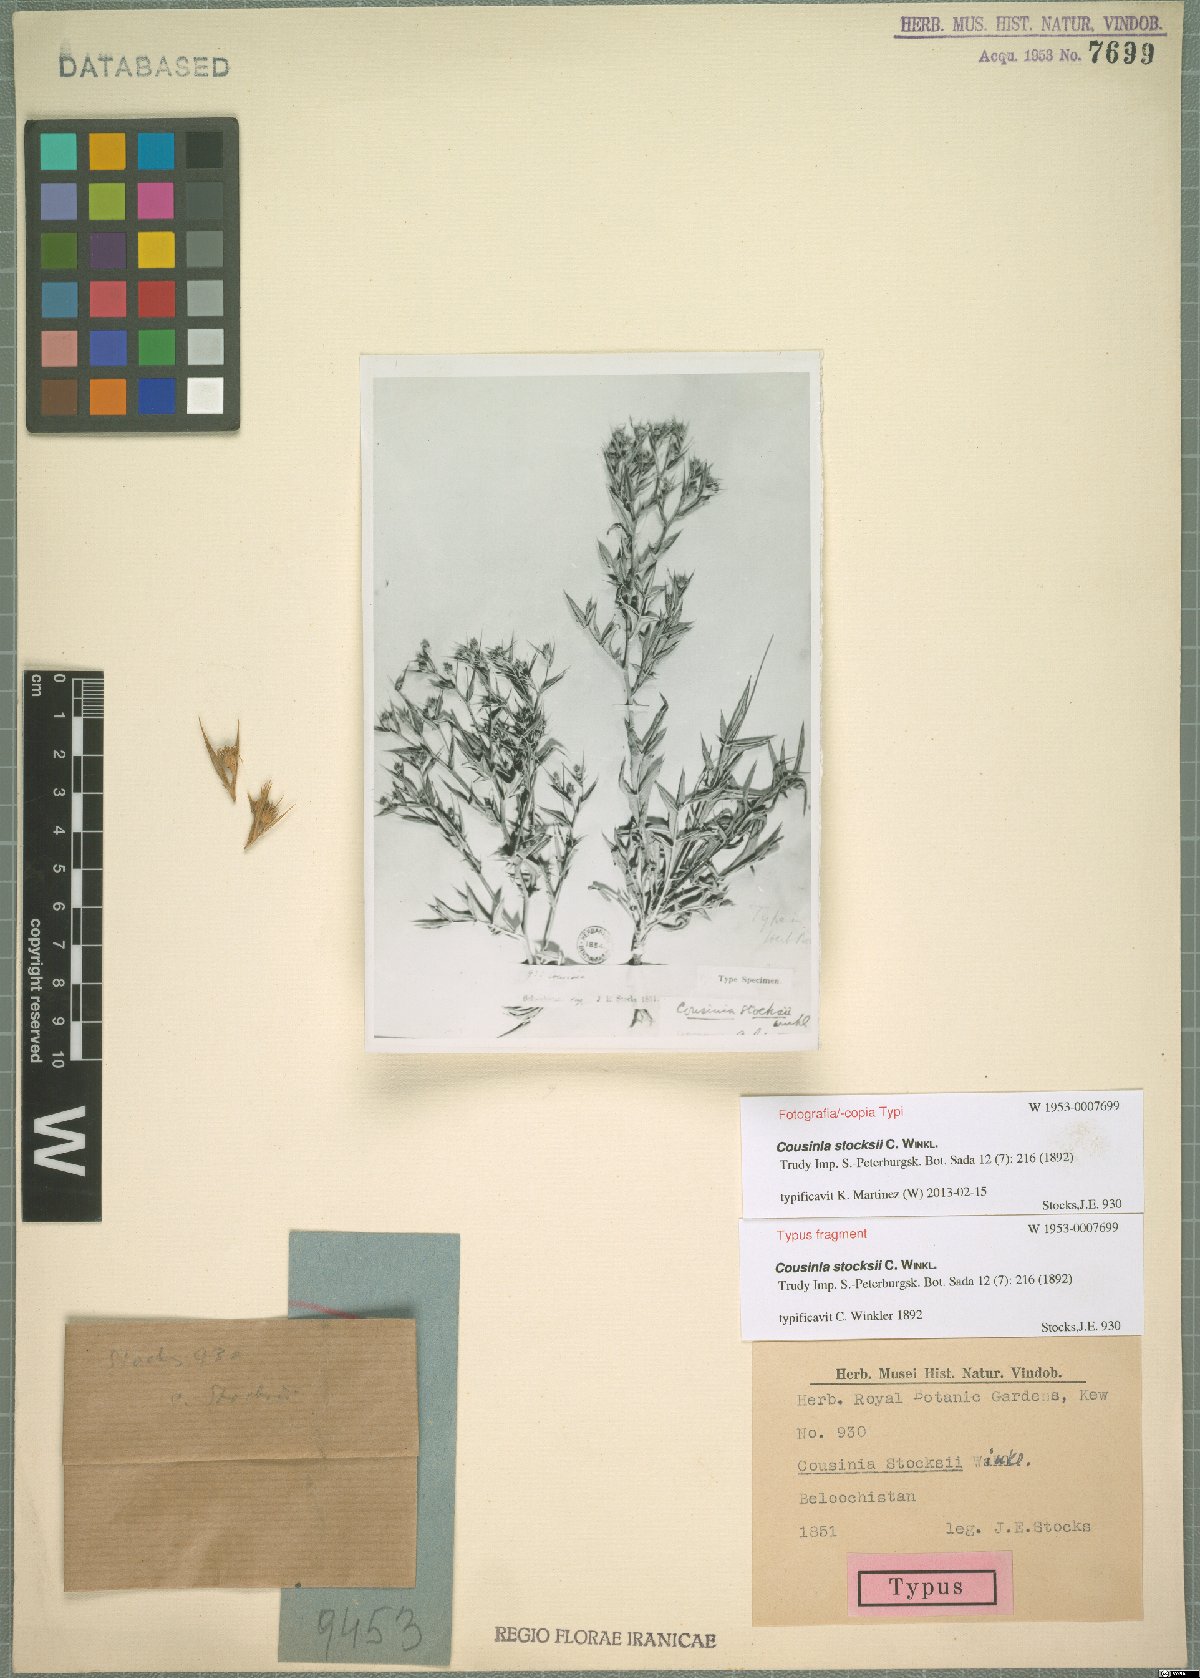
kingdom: Plantae
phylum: Tracheophyta
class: Magnoliopsida
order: Asterales
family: Asteraceae
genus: Cousinia
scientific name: Cousinia stocksii
